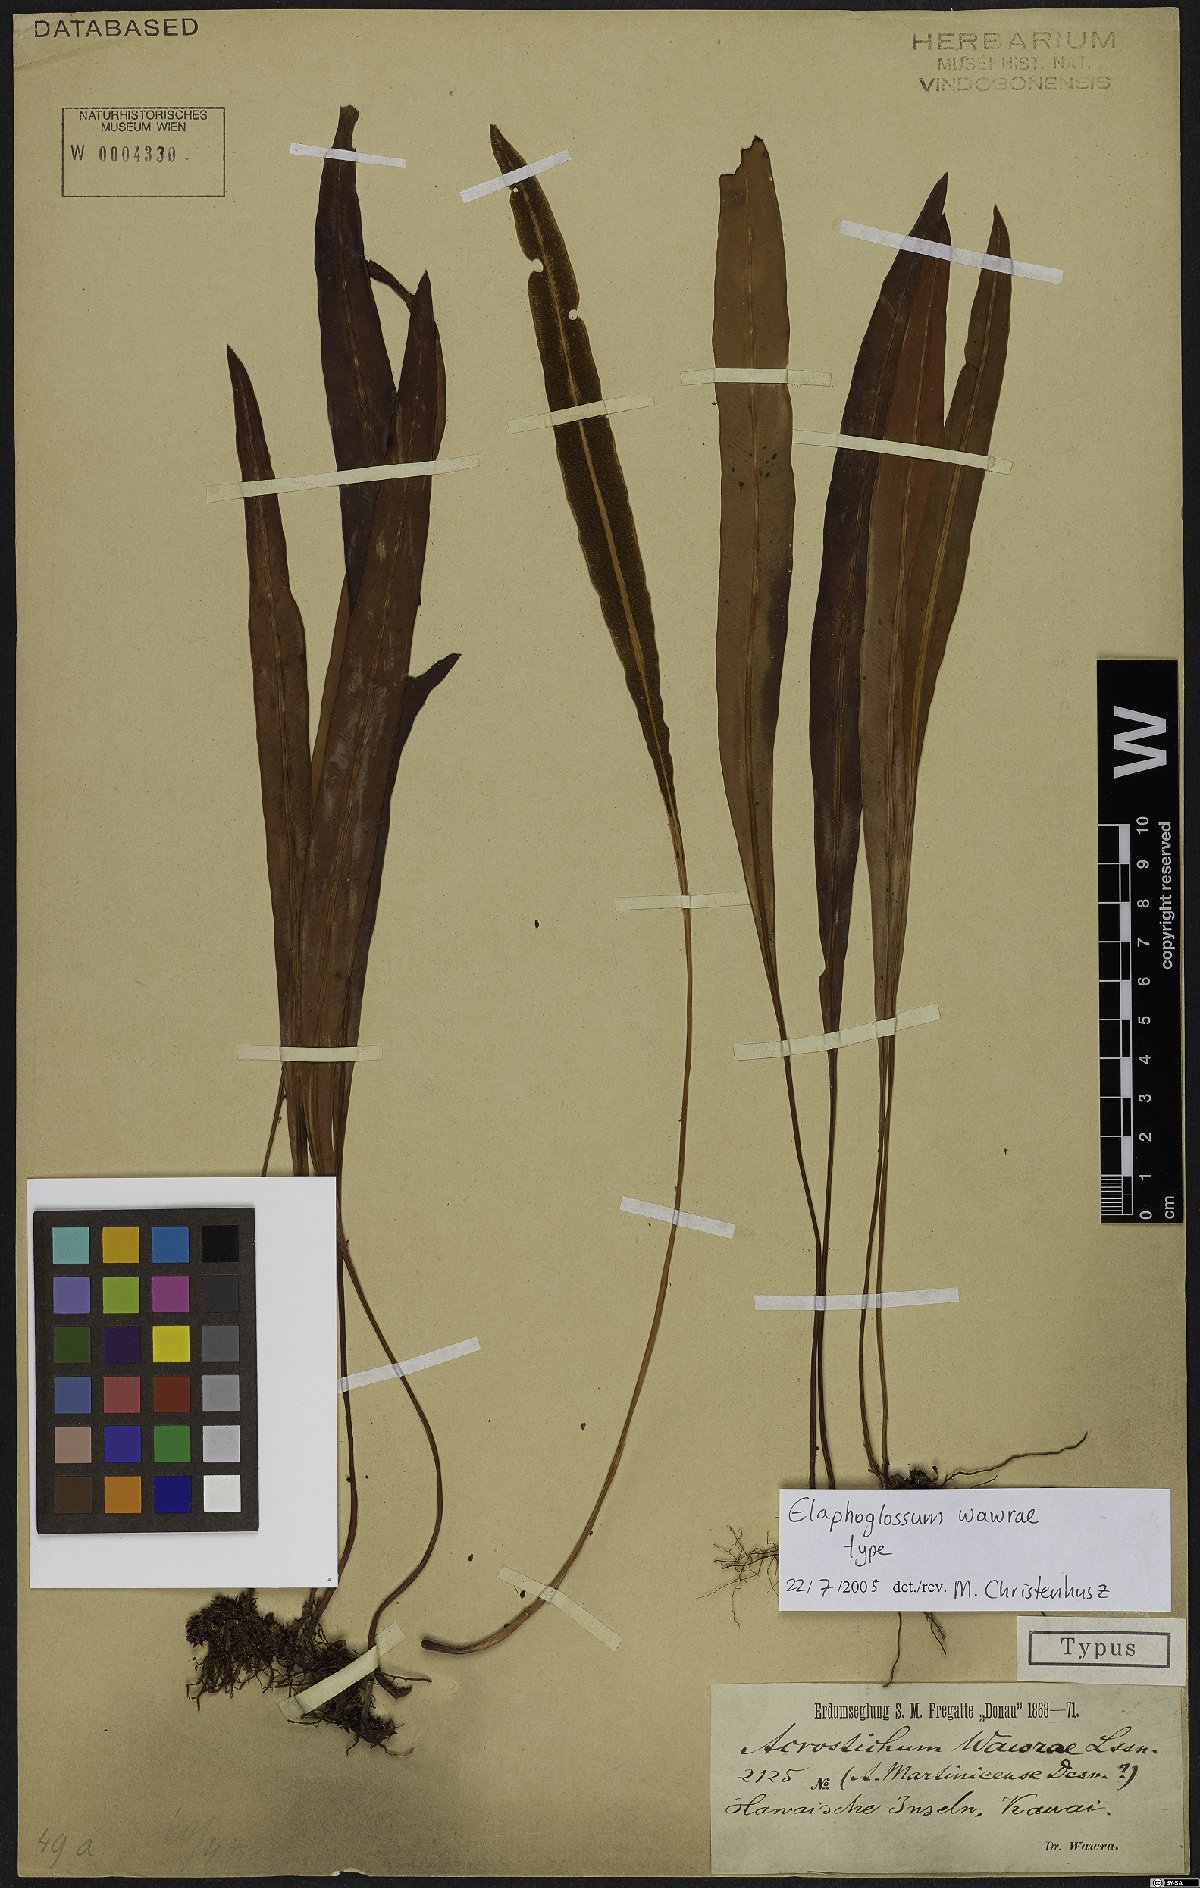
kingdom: Plantae
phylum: Tracheophyta
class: Polypodiopsida
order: Polypodiales
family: Dryopteridaceae
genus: Elaphoglossum
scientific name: Elaphoglossum wawrae
